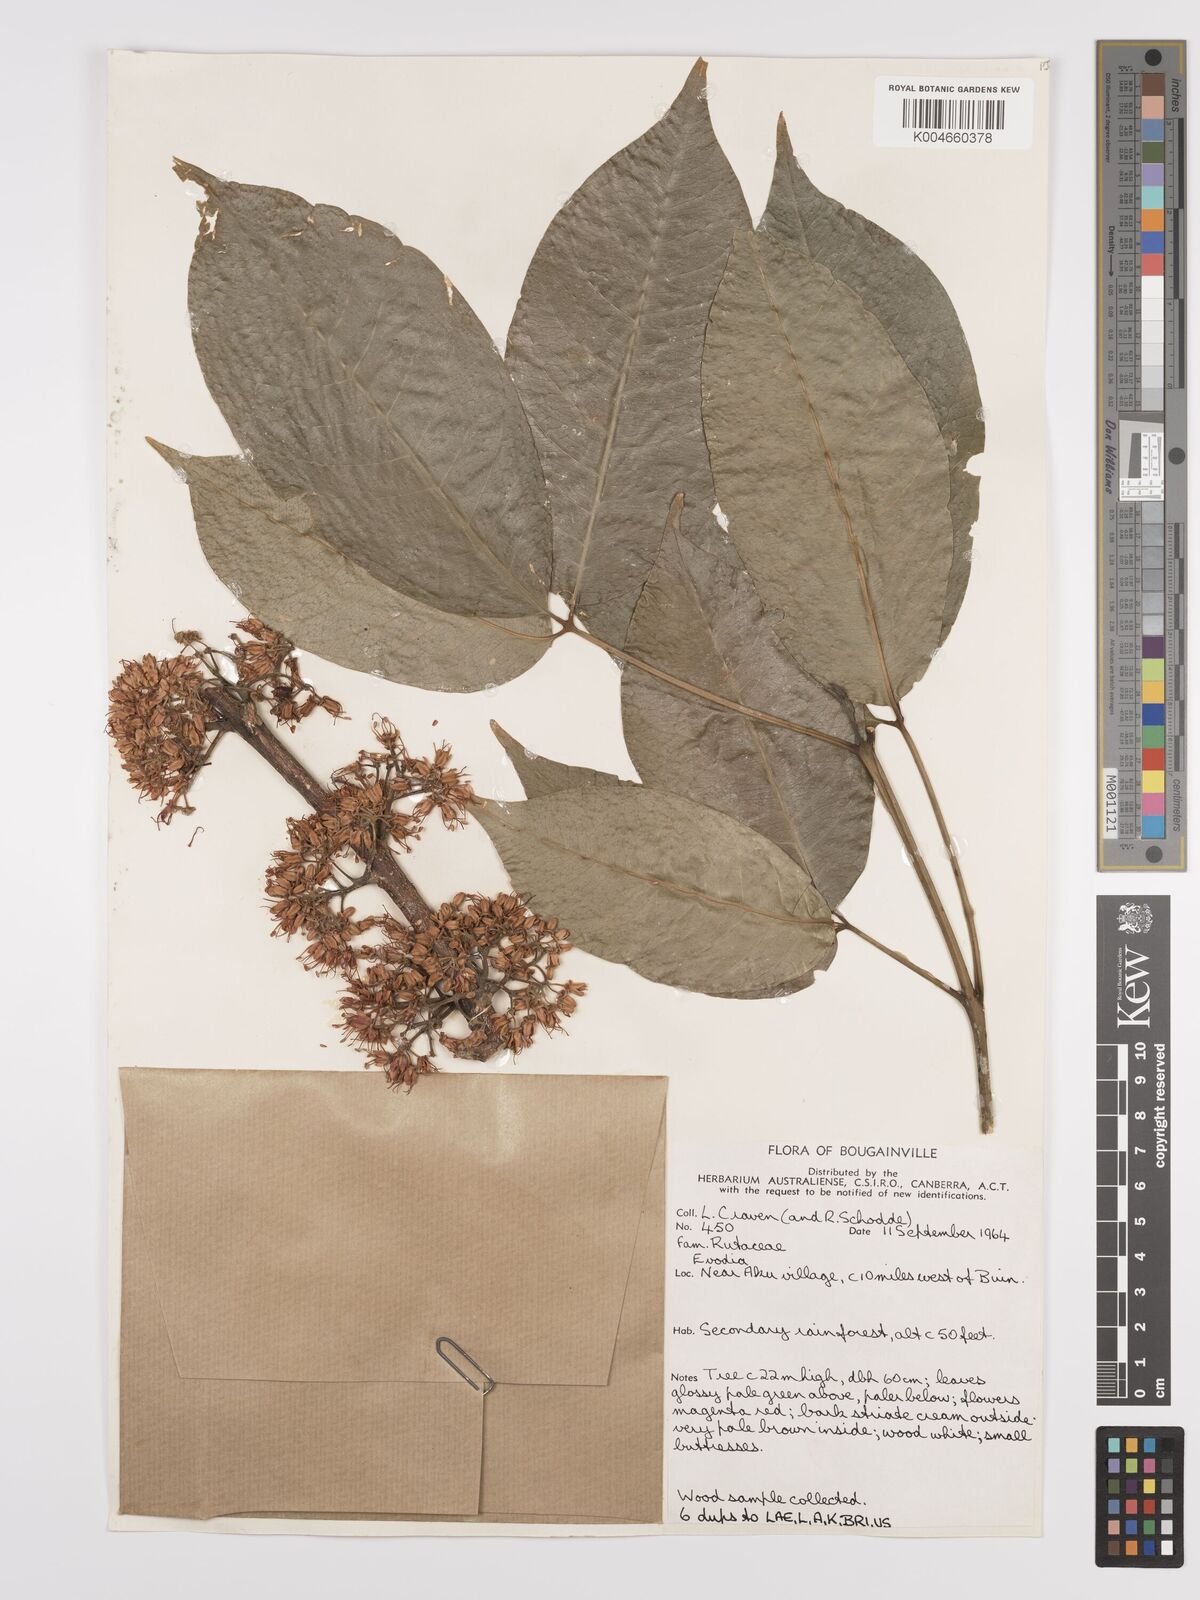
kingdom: Plantae
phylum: Tracheophyta
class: Magnoliopsida
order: Sapindales
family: Rutaceae
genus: Euodia
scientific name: Euodia
